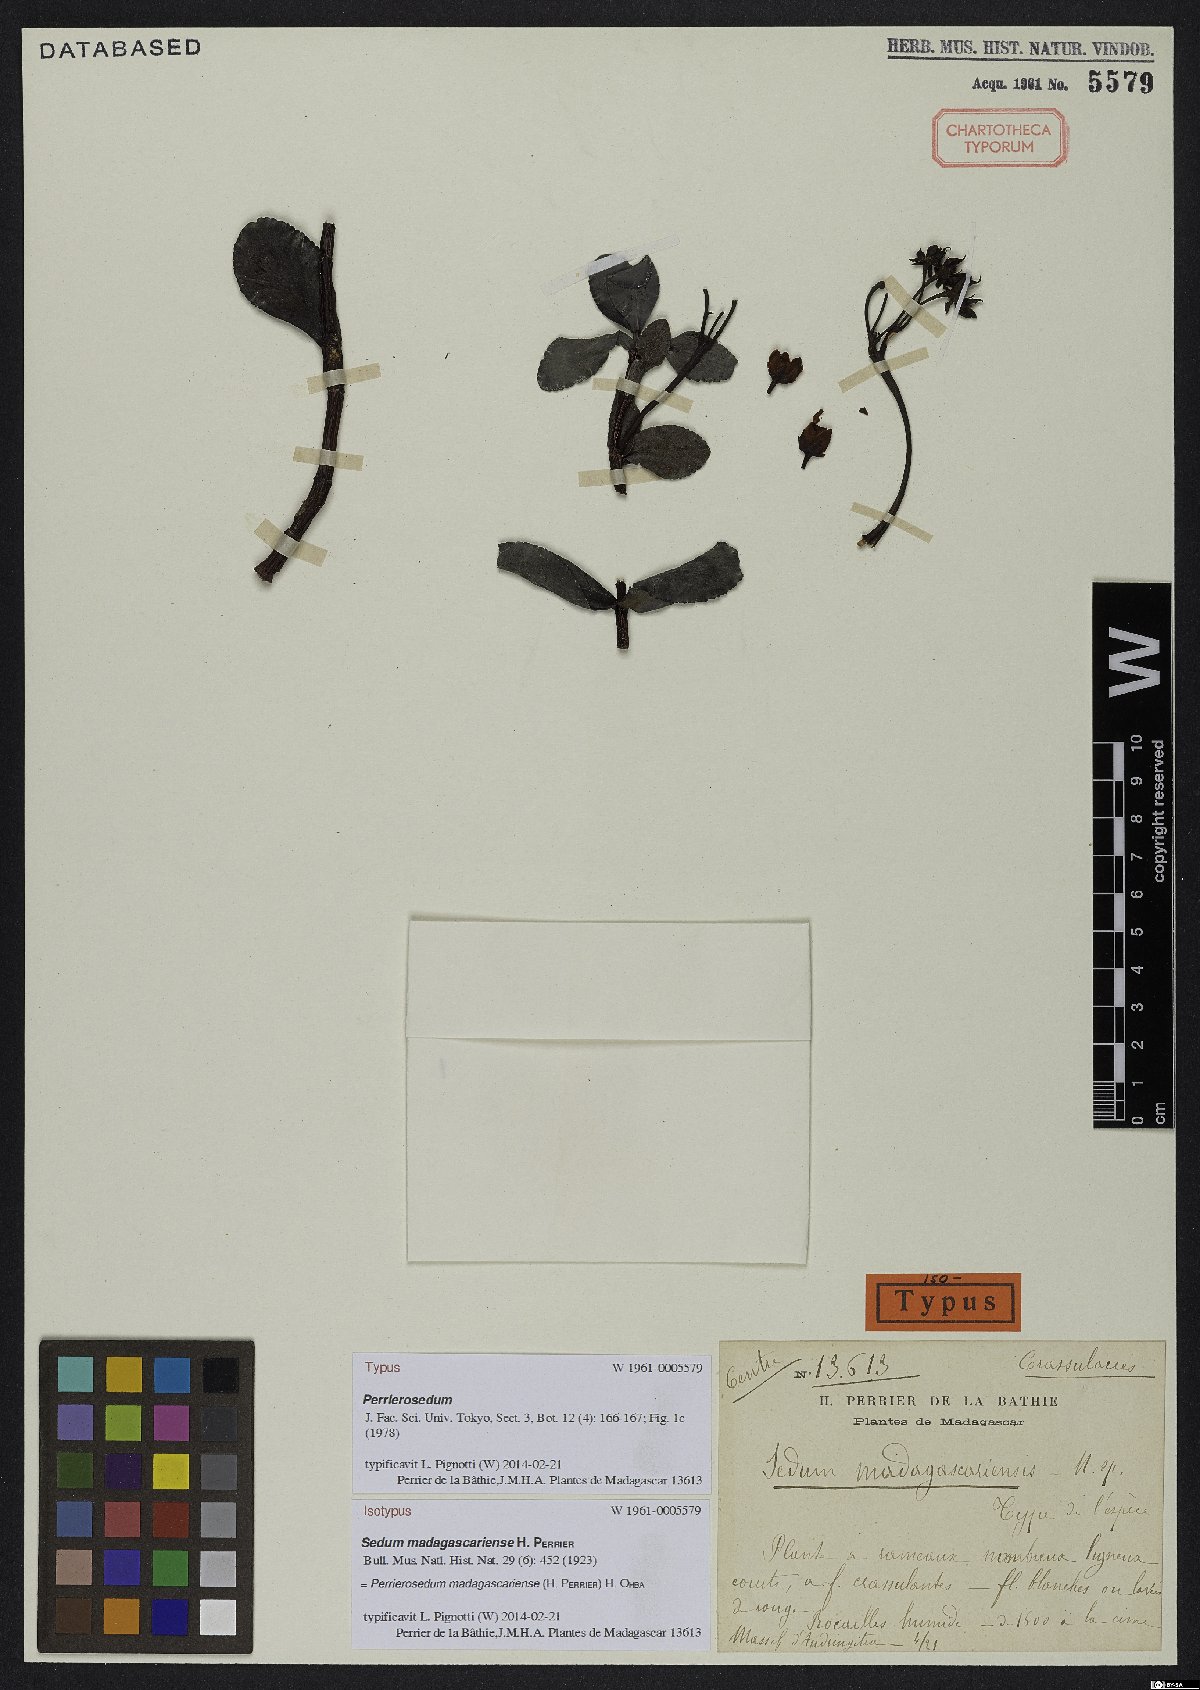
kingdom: Plantae
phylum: Tracheophyta
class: Magnoliopsida
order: Saxifragales
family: Crassulaceae
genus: Perrierosedum
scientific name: Perrierosedum madagascariense
